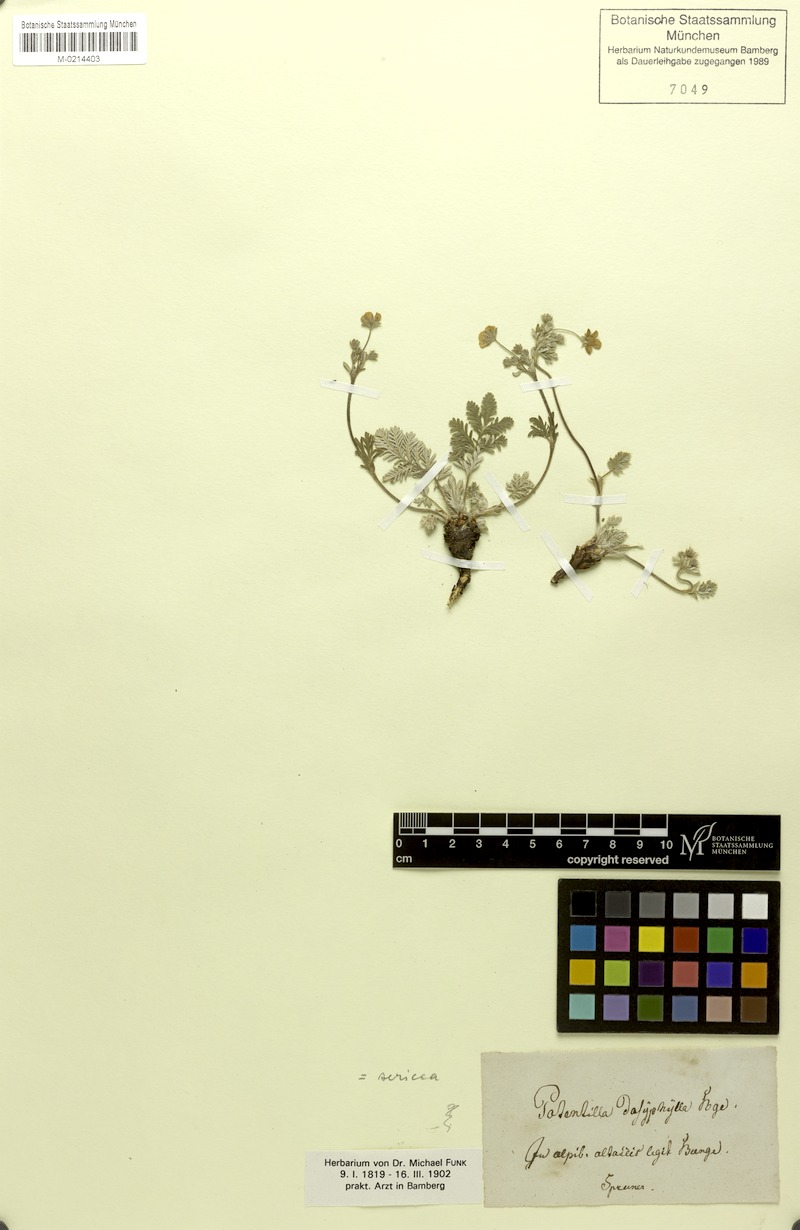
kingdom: Plantae
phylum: Tracheophyta
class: Magnoliopsida
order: Rosales
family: Rosaceae
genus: Potentilla
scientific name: Potentilla sericea
